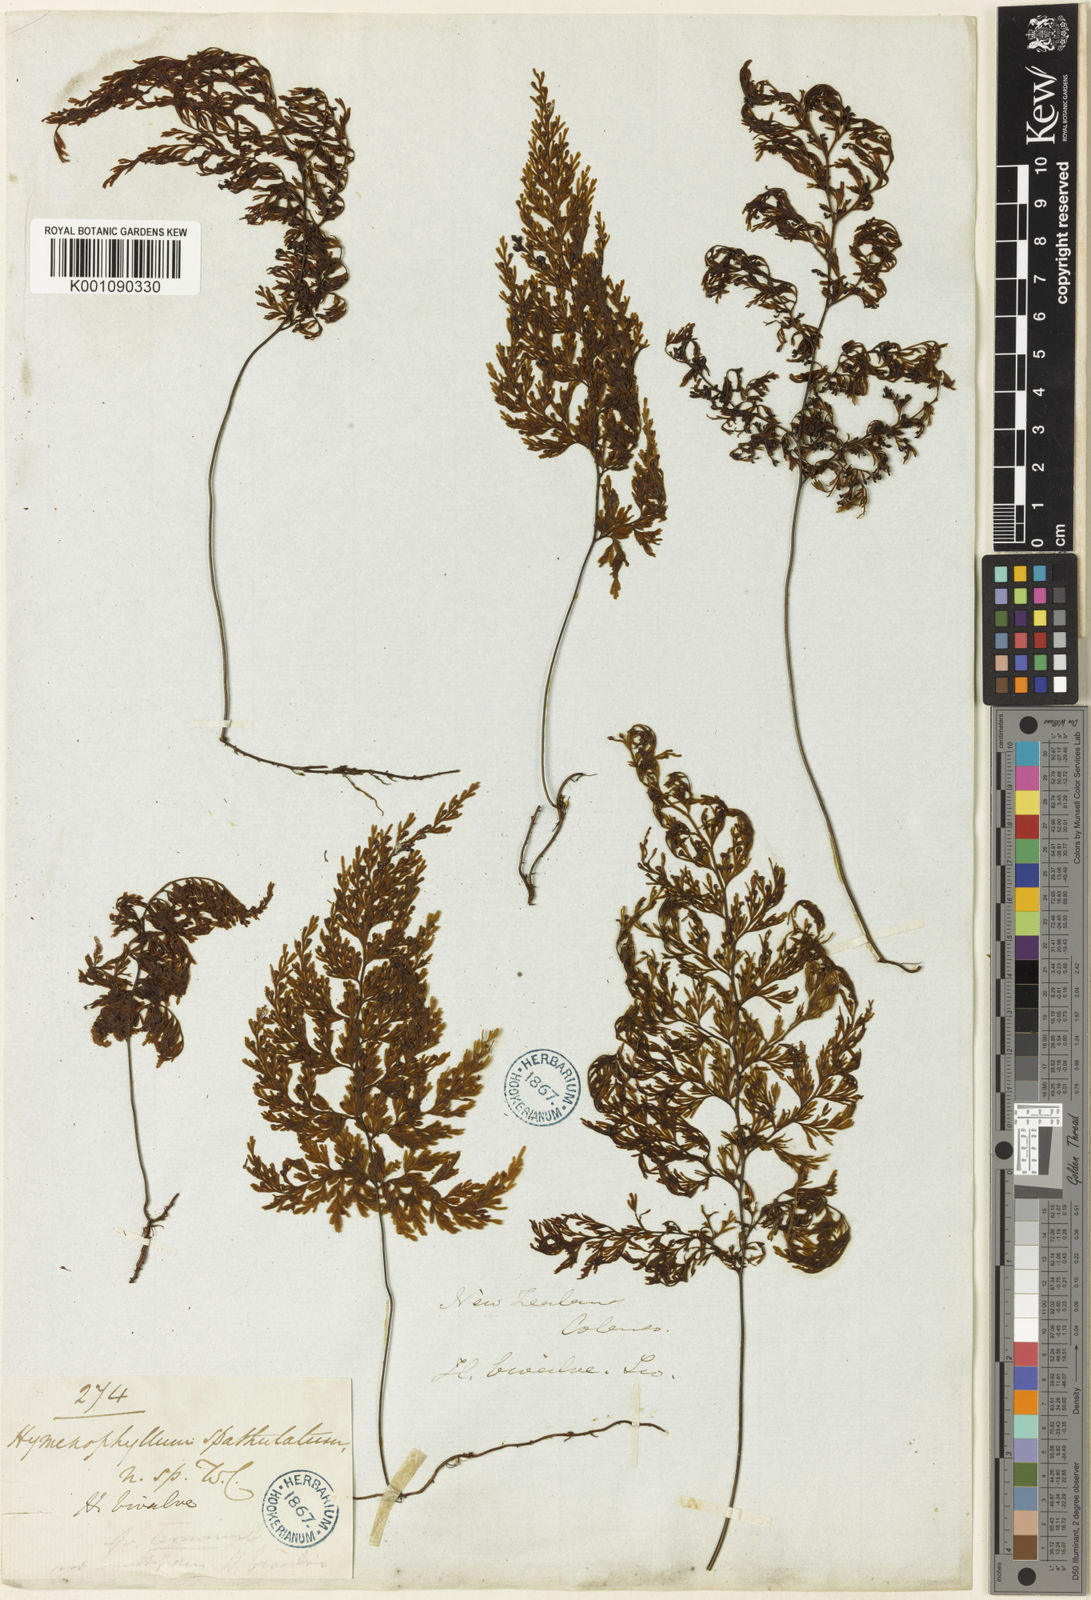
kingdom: Plantae
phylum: Tracheophyta
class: Polypodiopsida
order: Hymenophyllales
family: Hymenophyllaceae
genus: Hymenophyllum
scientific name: Hymenophyllum bivalve
